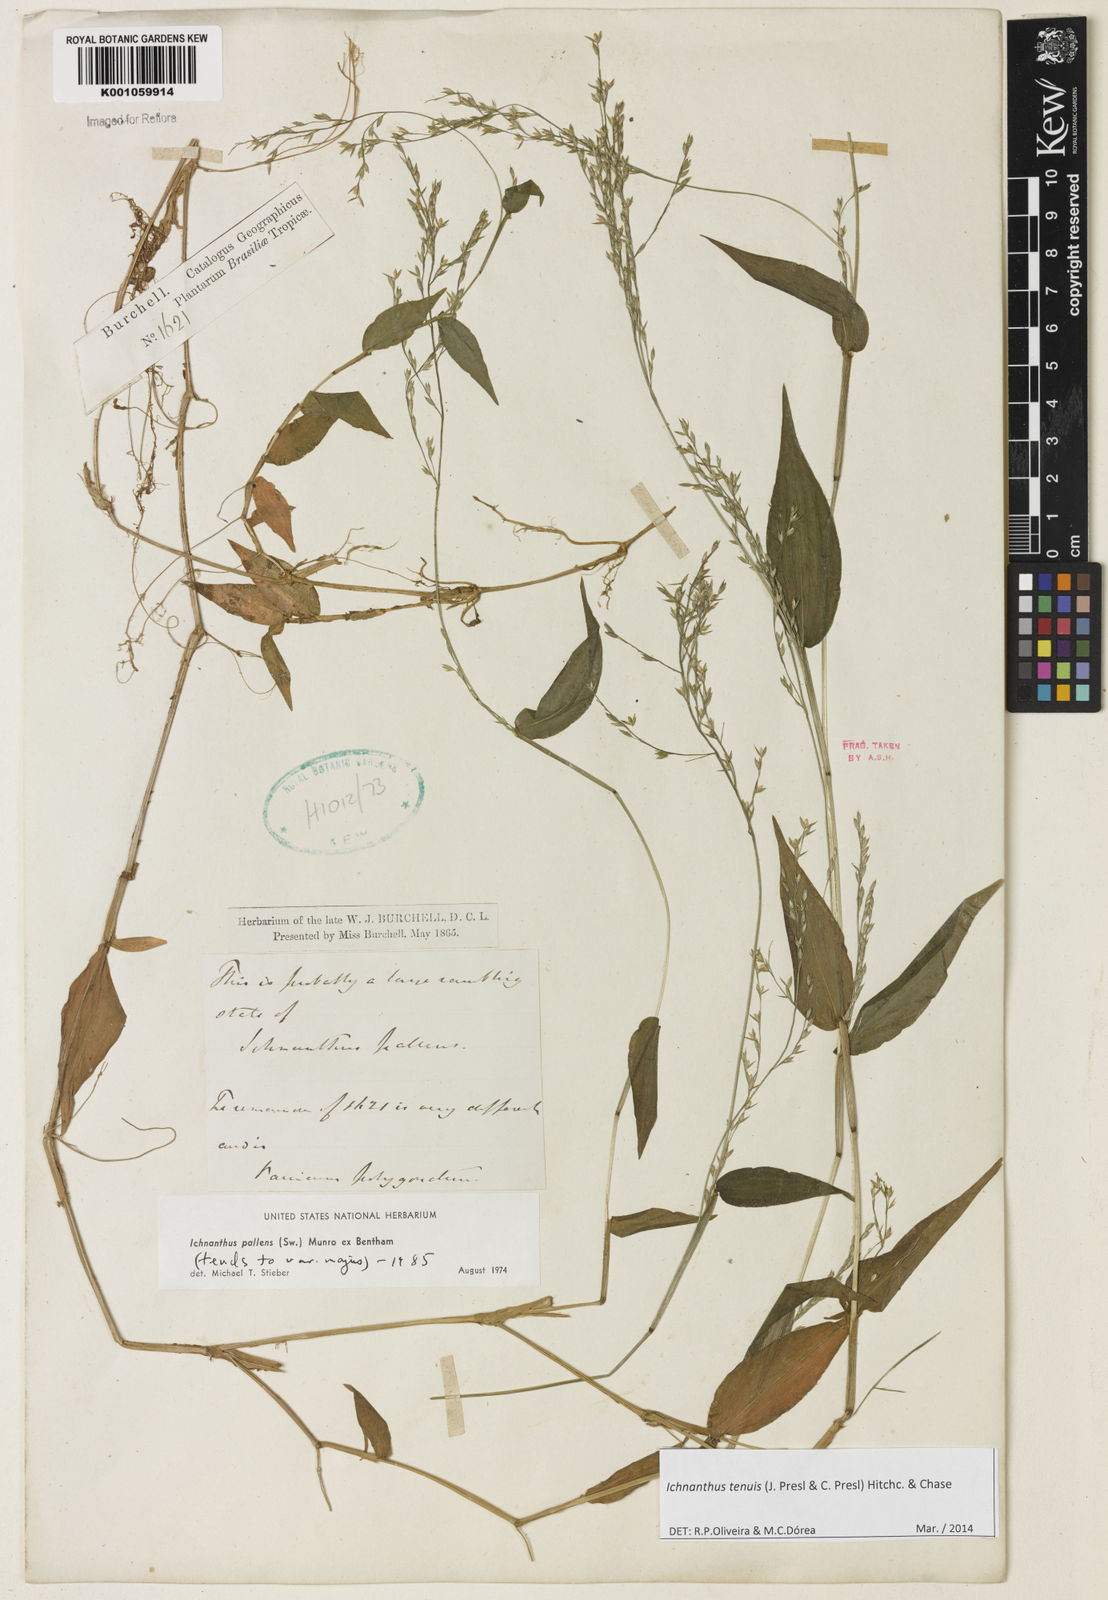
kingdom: Plantae
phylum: Tracheophyta
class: Liliopsida
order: Poales
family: Poaceae
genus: Ichnanthus
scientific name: Ichnanthus tenuis
